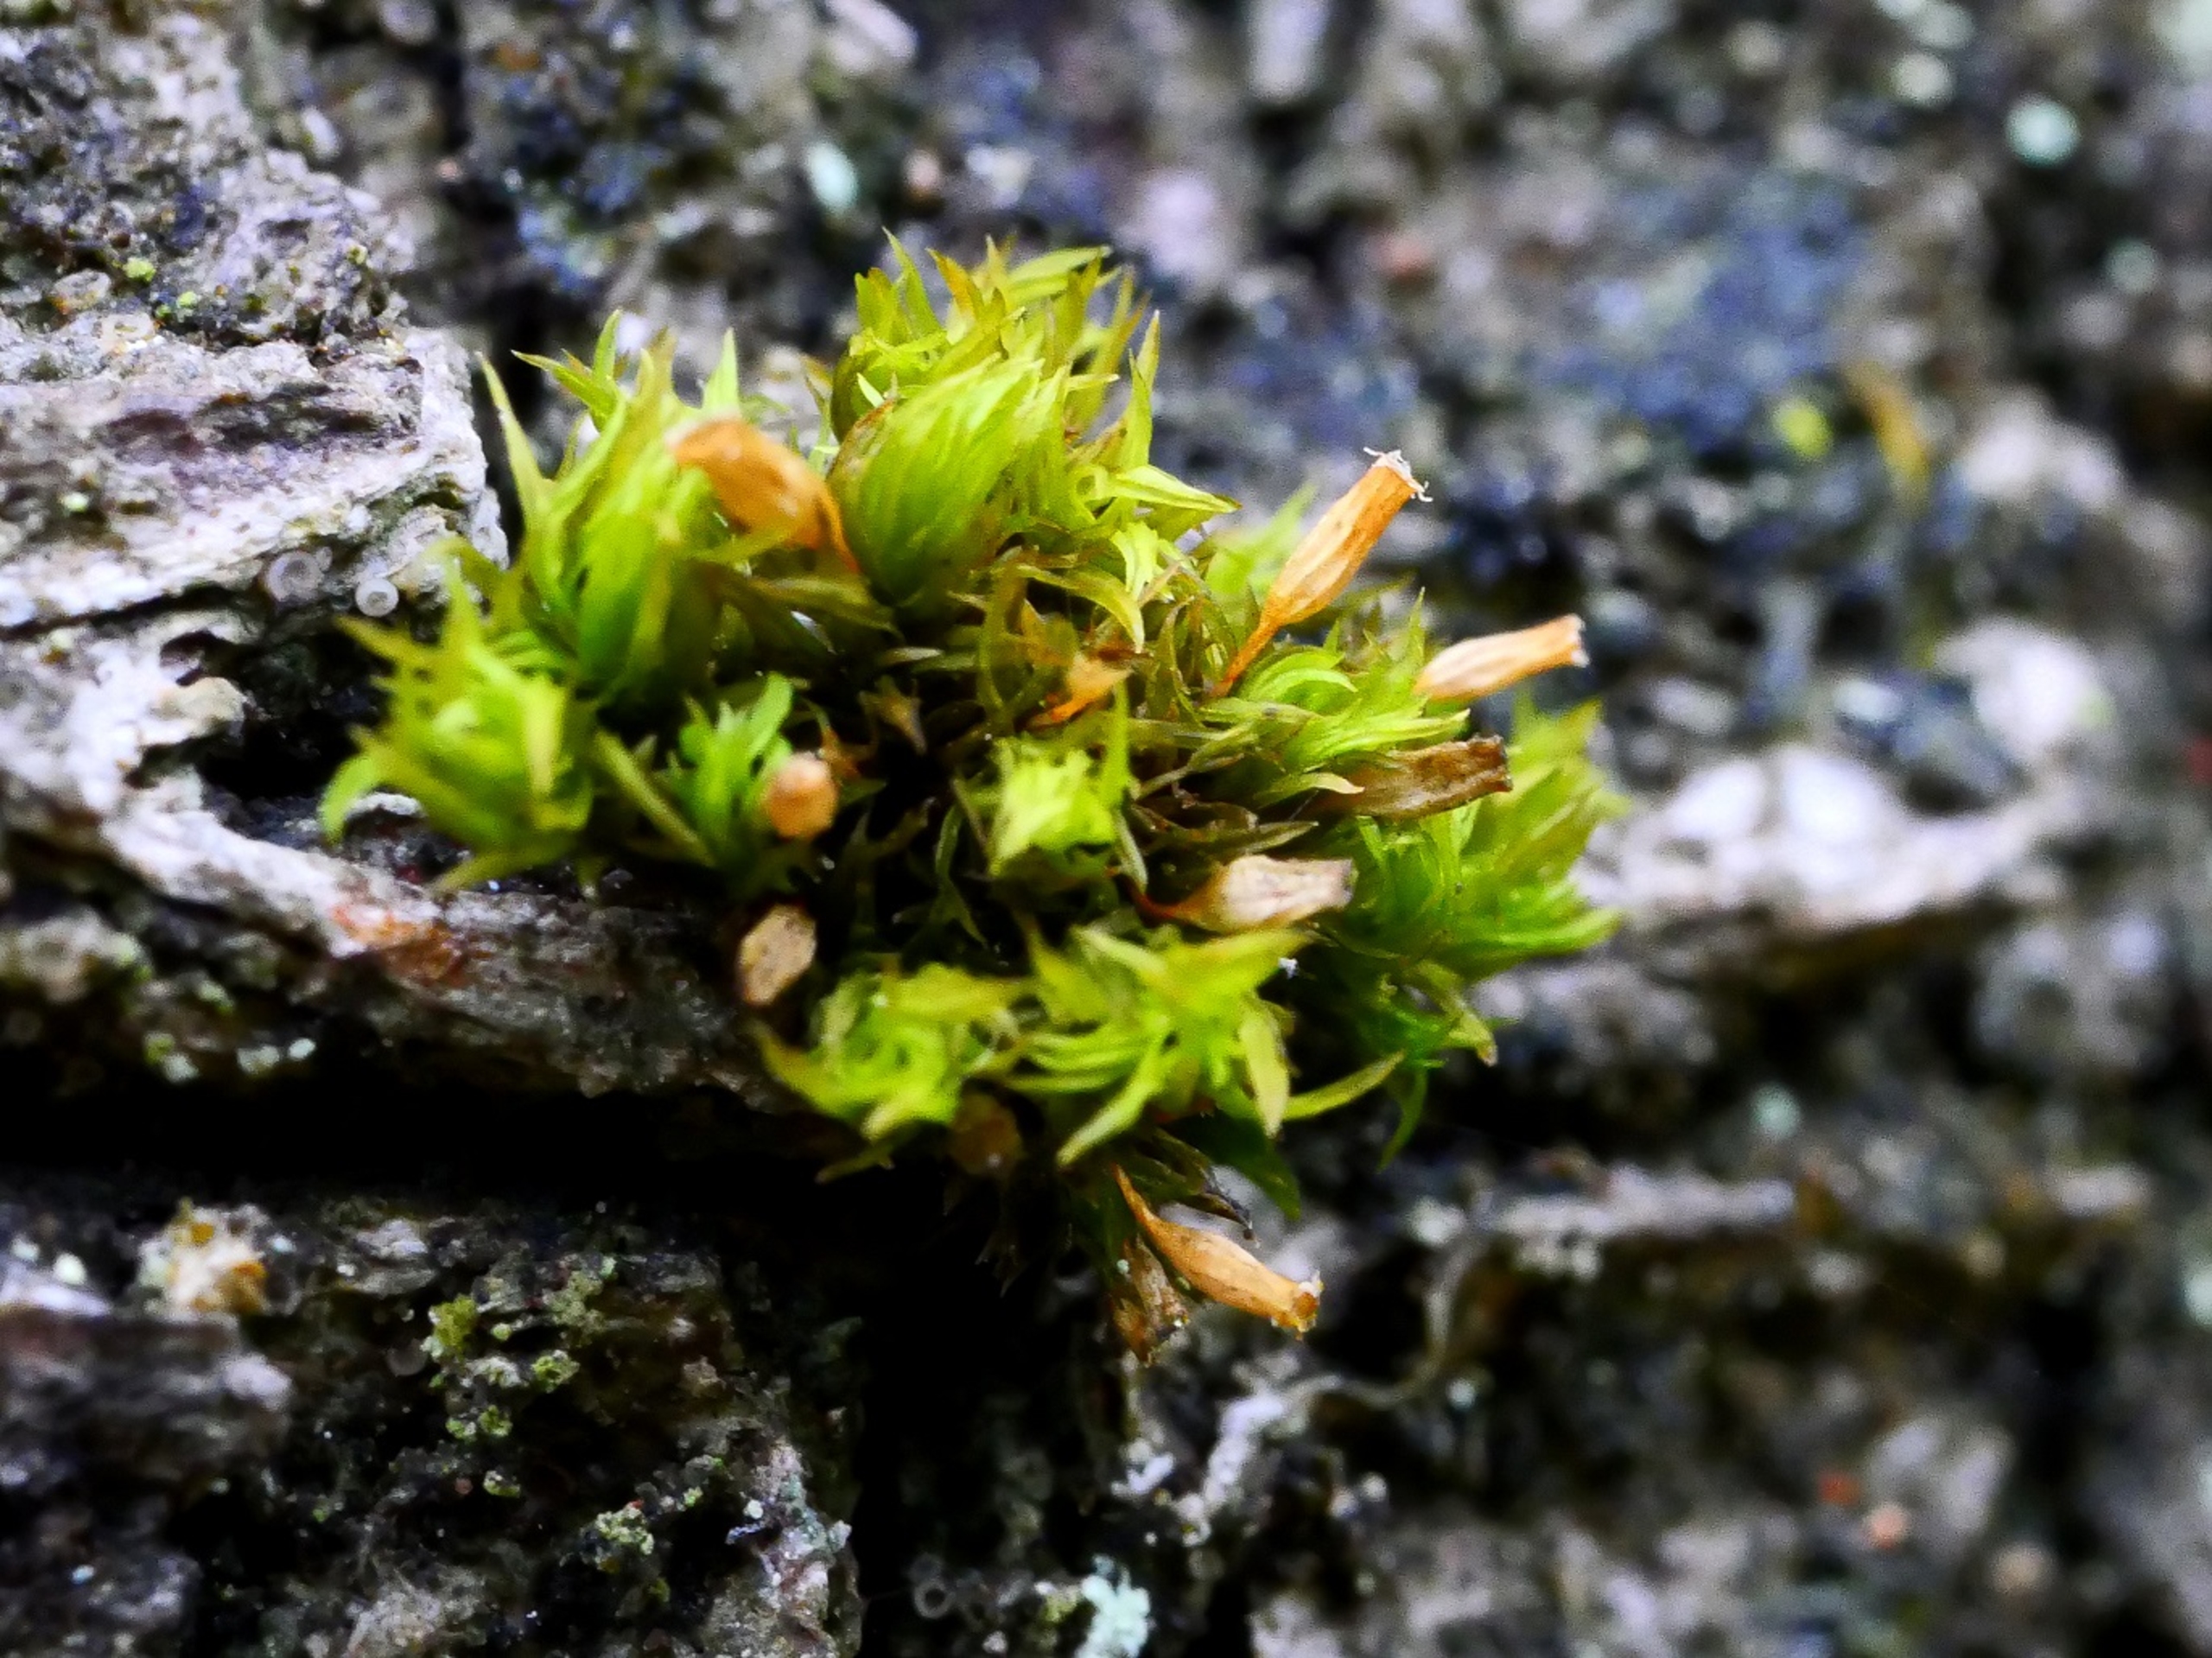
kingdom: Plantae
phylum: Bryophyta
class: Bryopsida
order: Orthotrichales
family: Orthotrichaceae
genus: Orthotrichum
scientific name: Orthotrichum pulchellum
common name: Smuk furehætte
